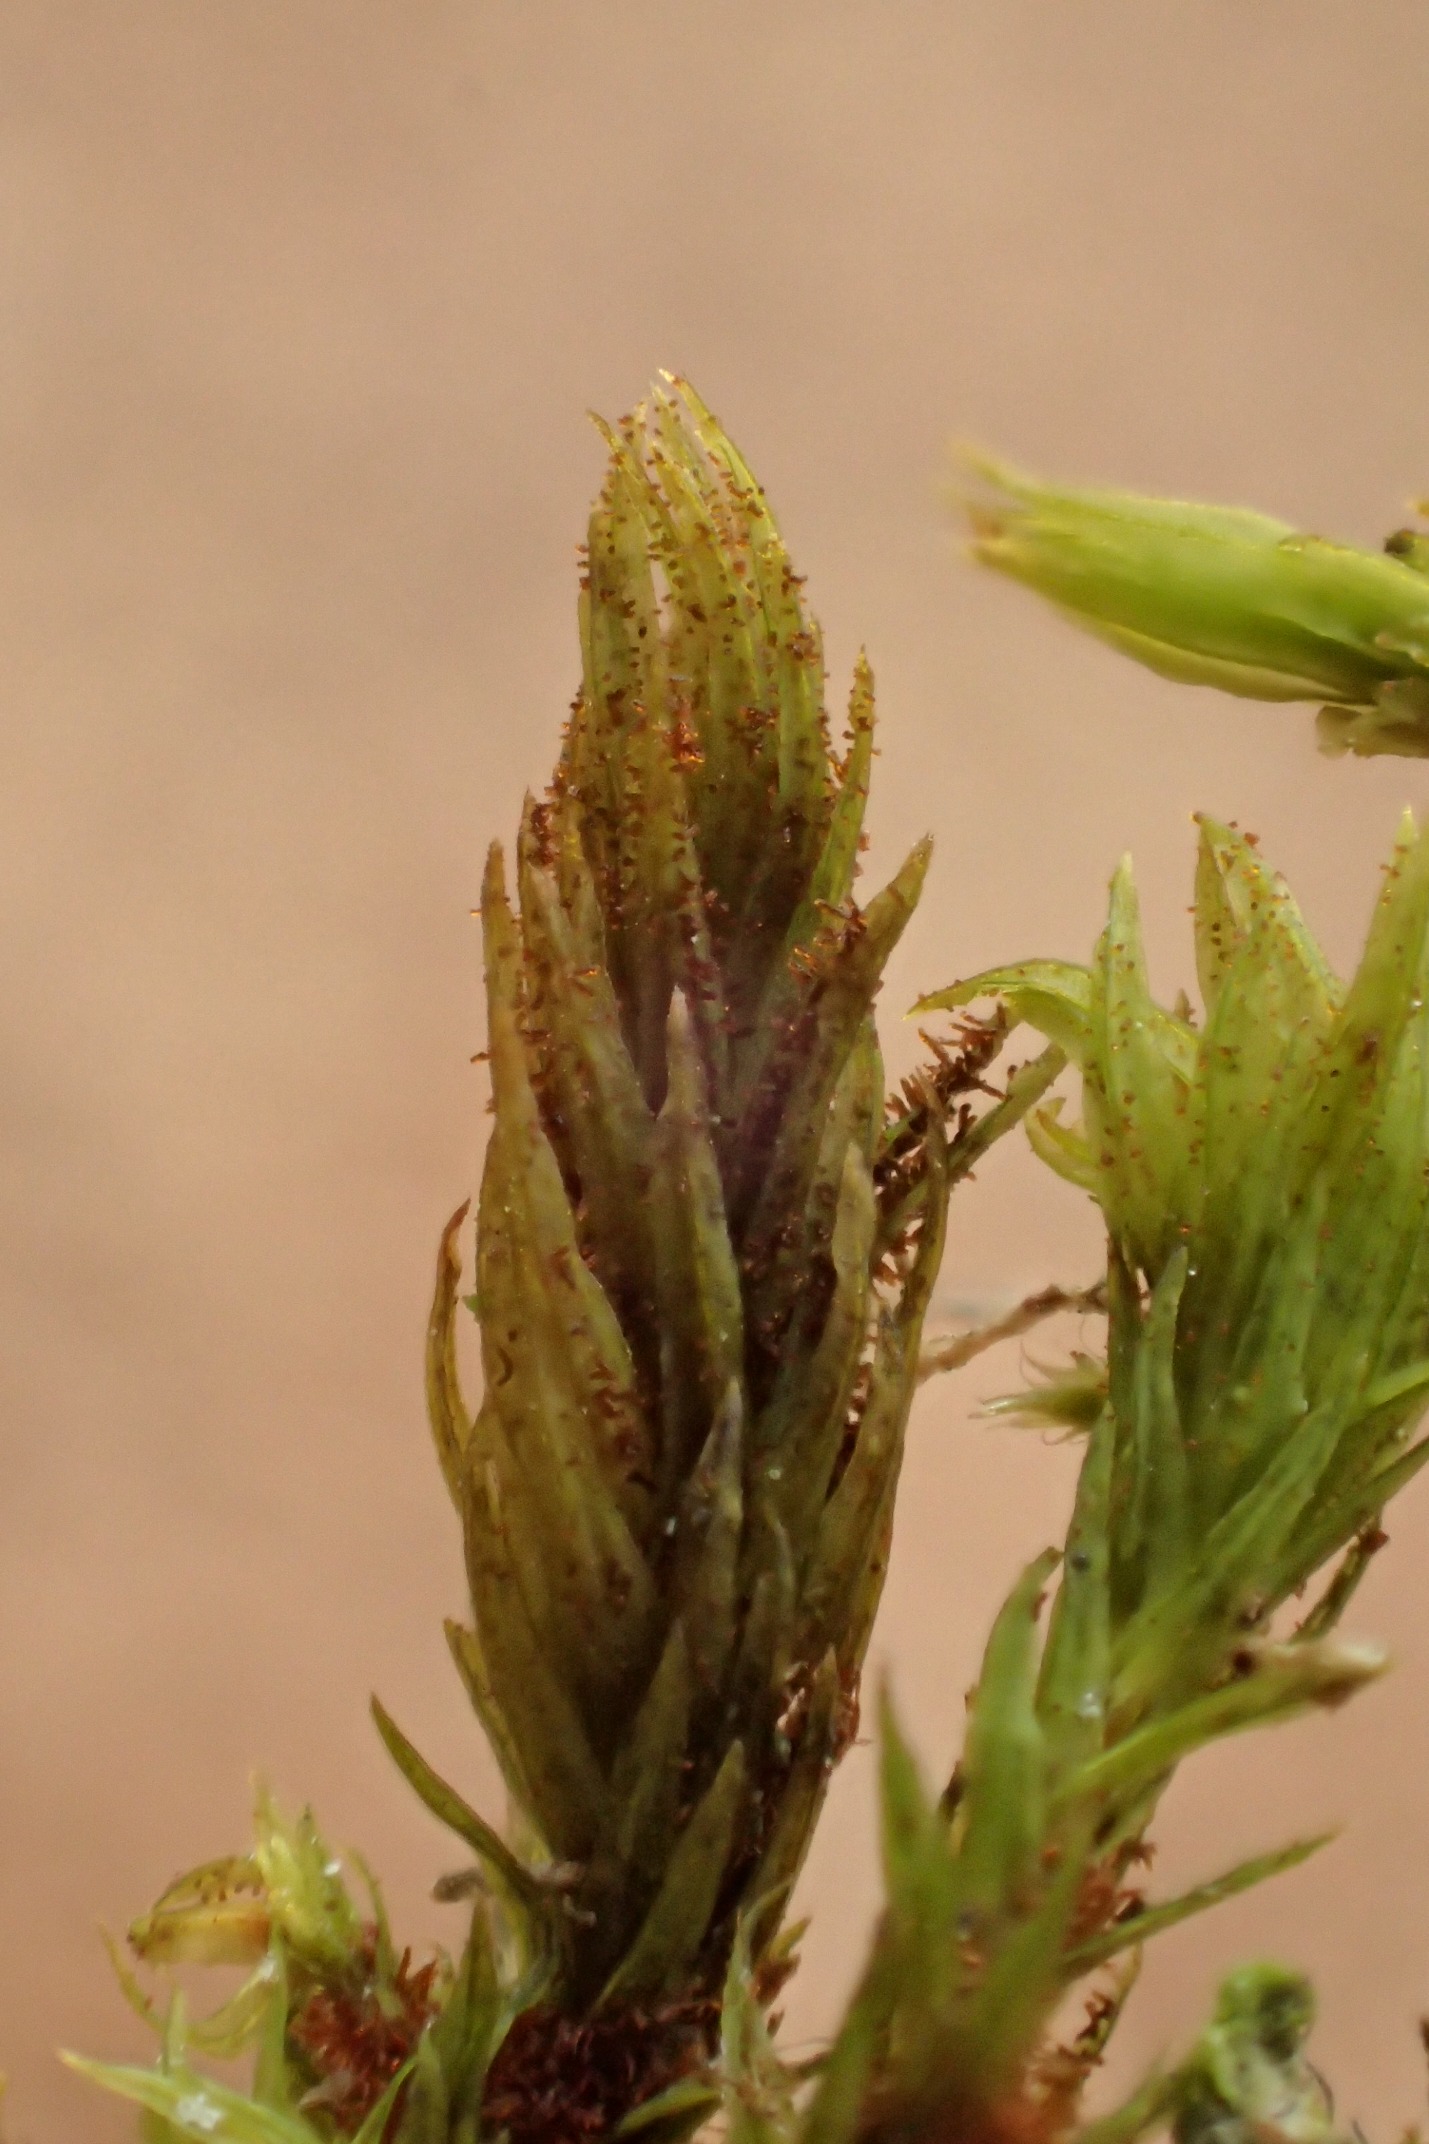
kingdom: Plantae
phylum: Bryophyta
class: Bryopsida
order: Orthotrichales
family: Orthotrichaceae
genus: Pulvigera
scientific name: Pulvigera lyellii
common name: Stor furehætte
